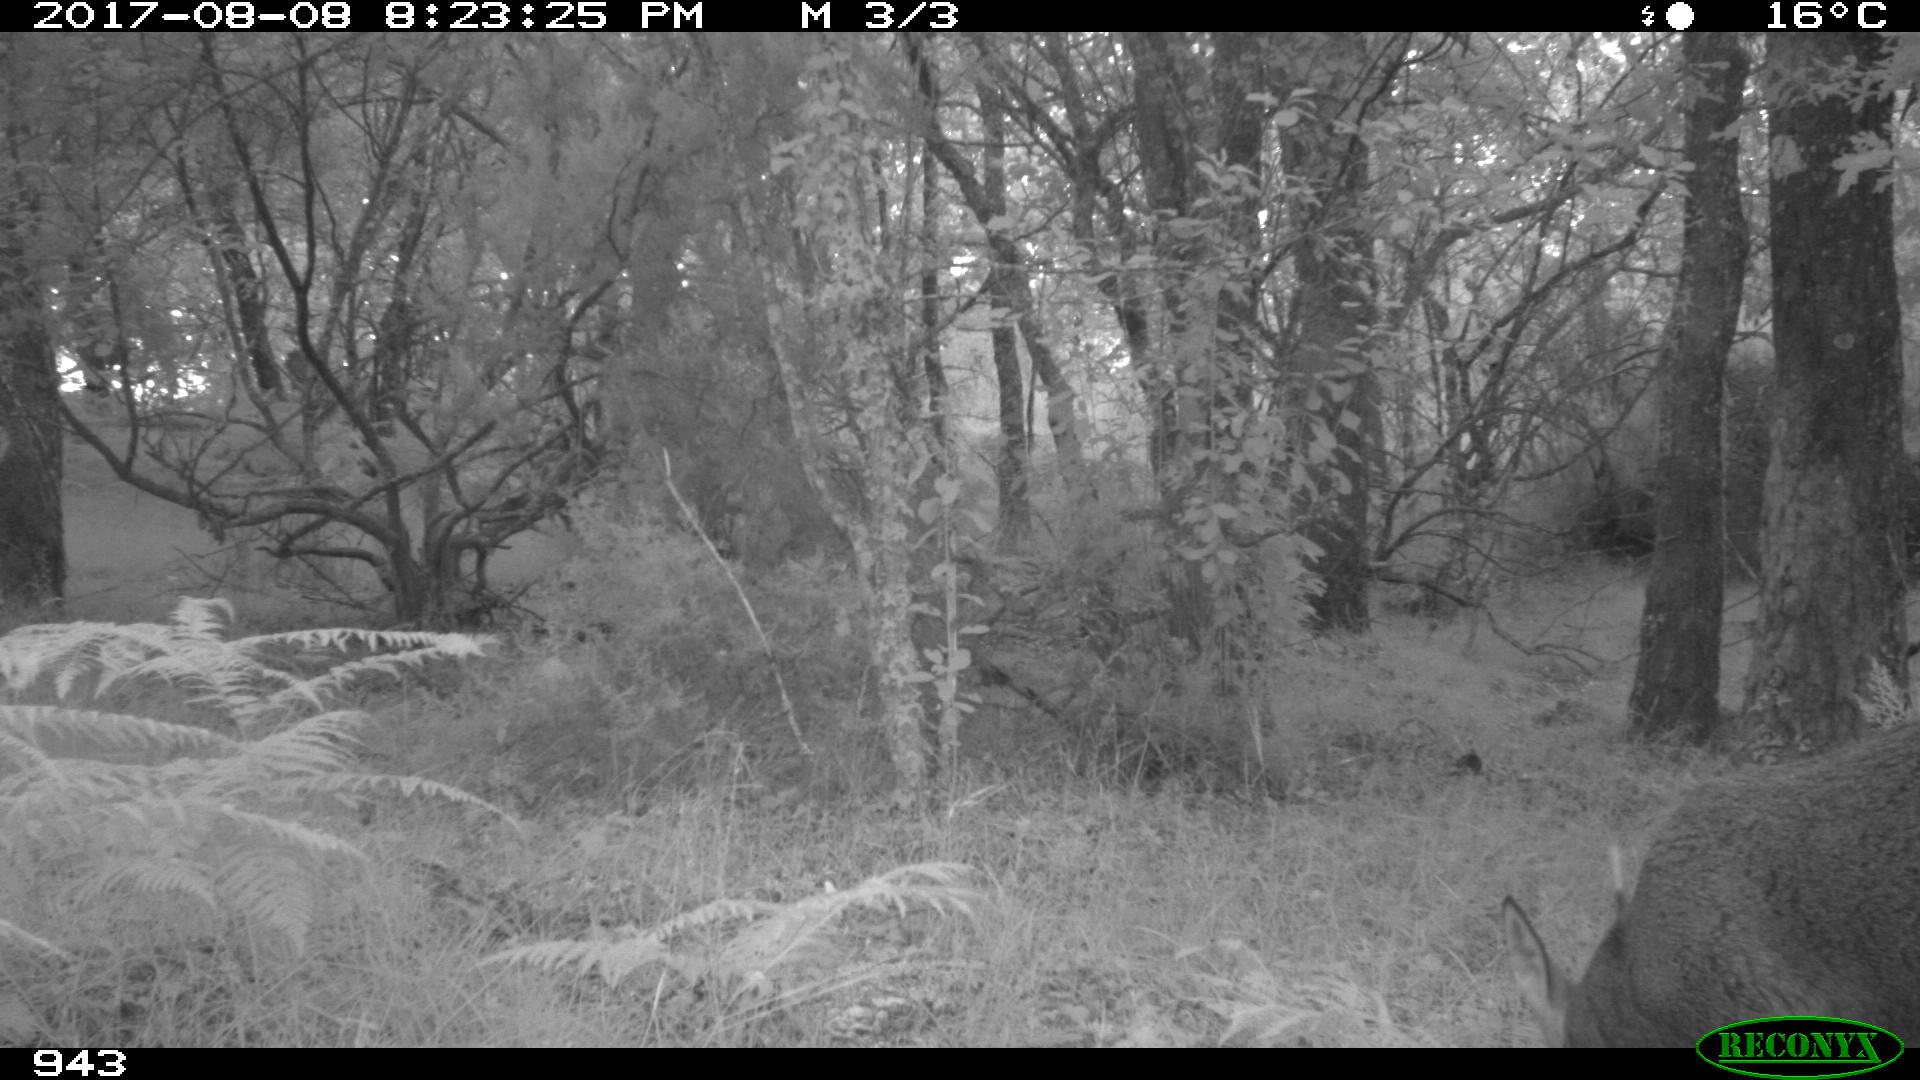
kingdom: Animalia
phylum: Chordata
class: Mammalia
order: Perissodactyla
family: Equidae
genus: Equus
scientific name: Equus caballus
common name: Horse
